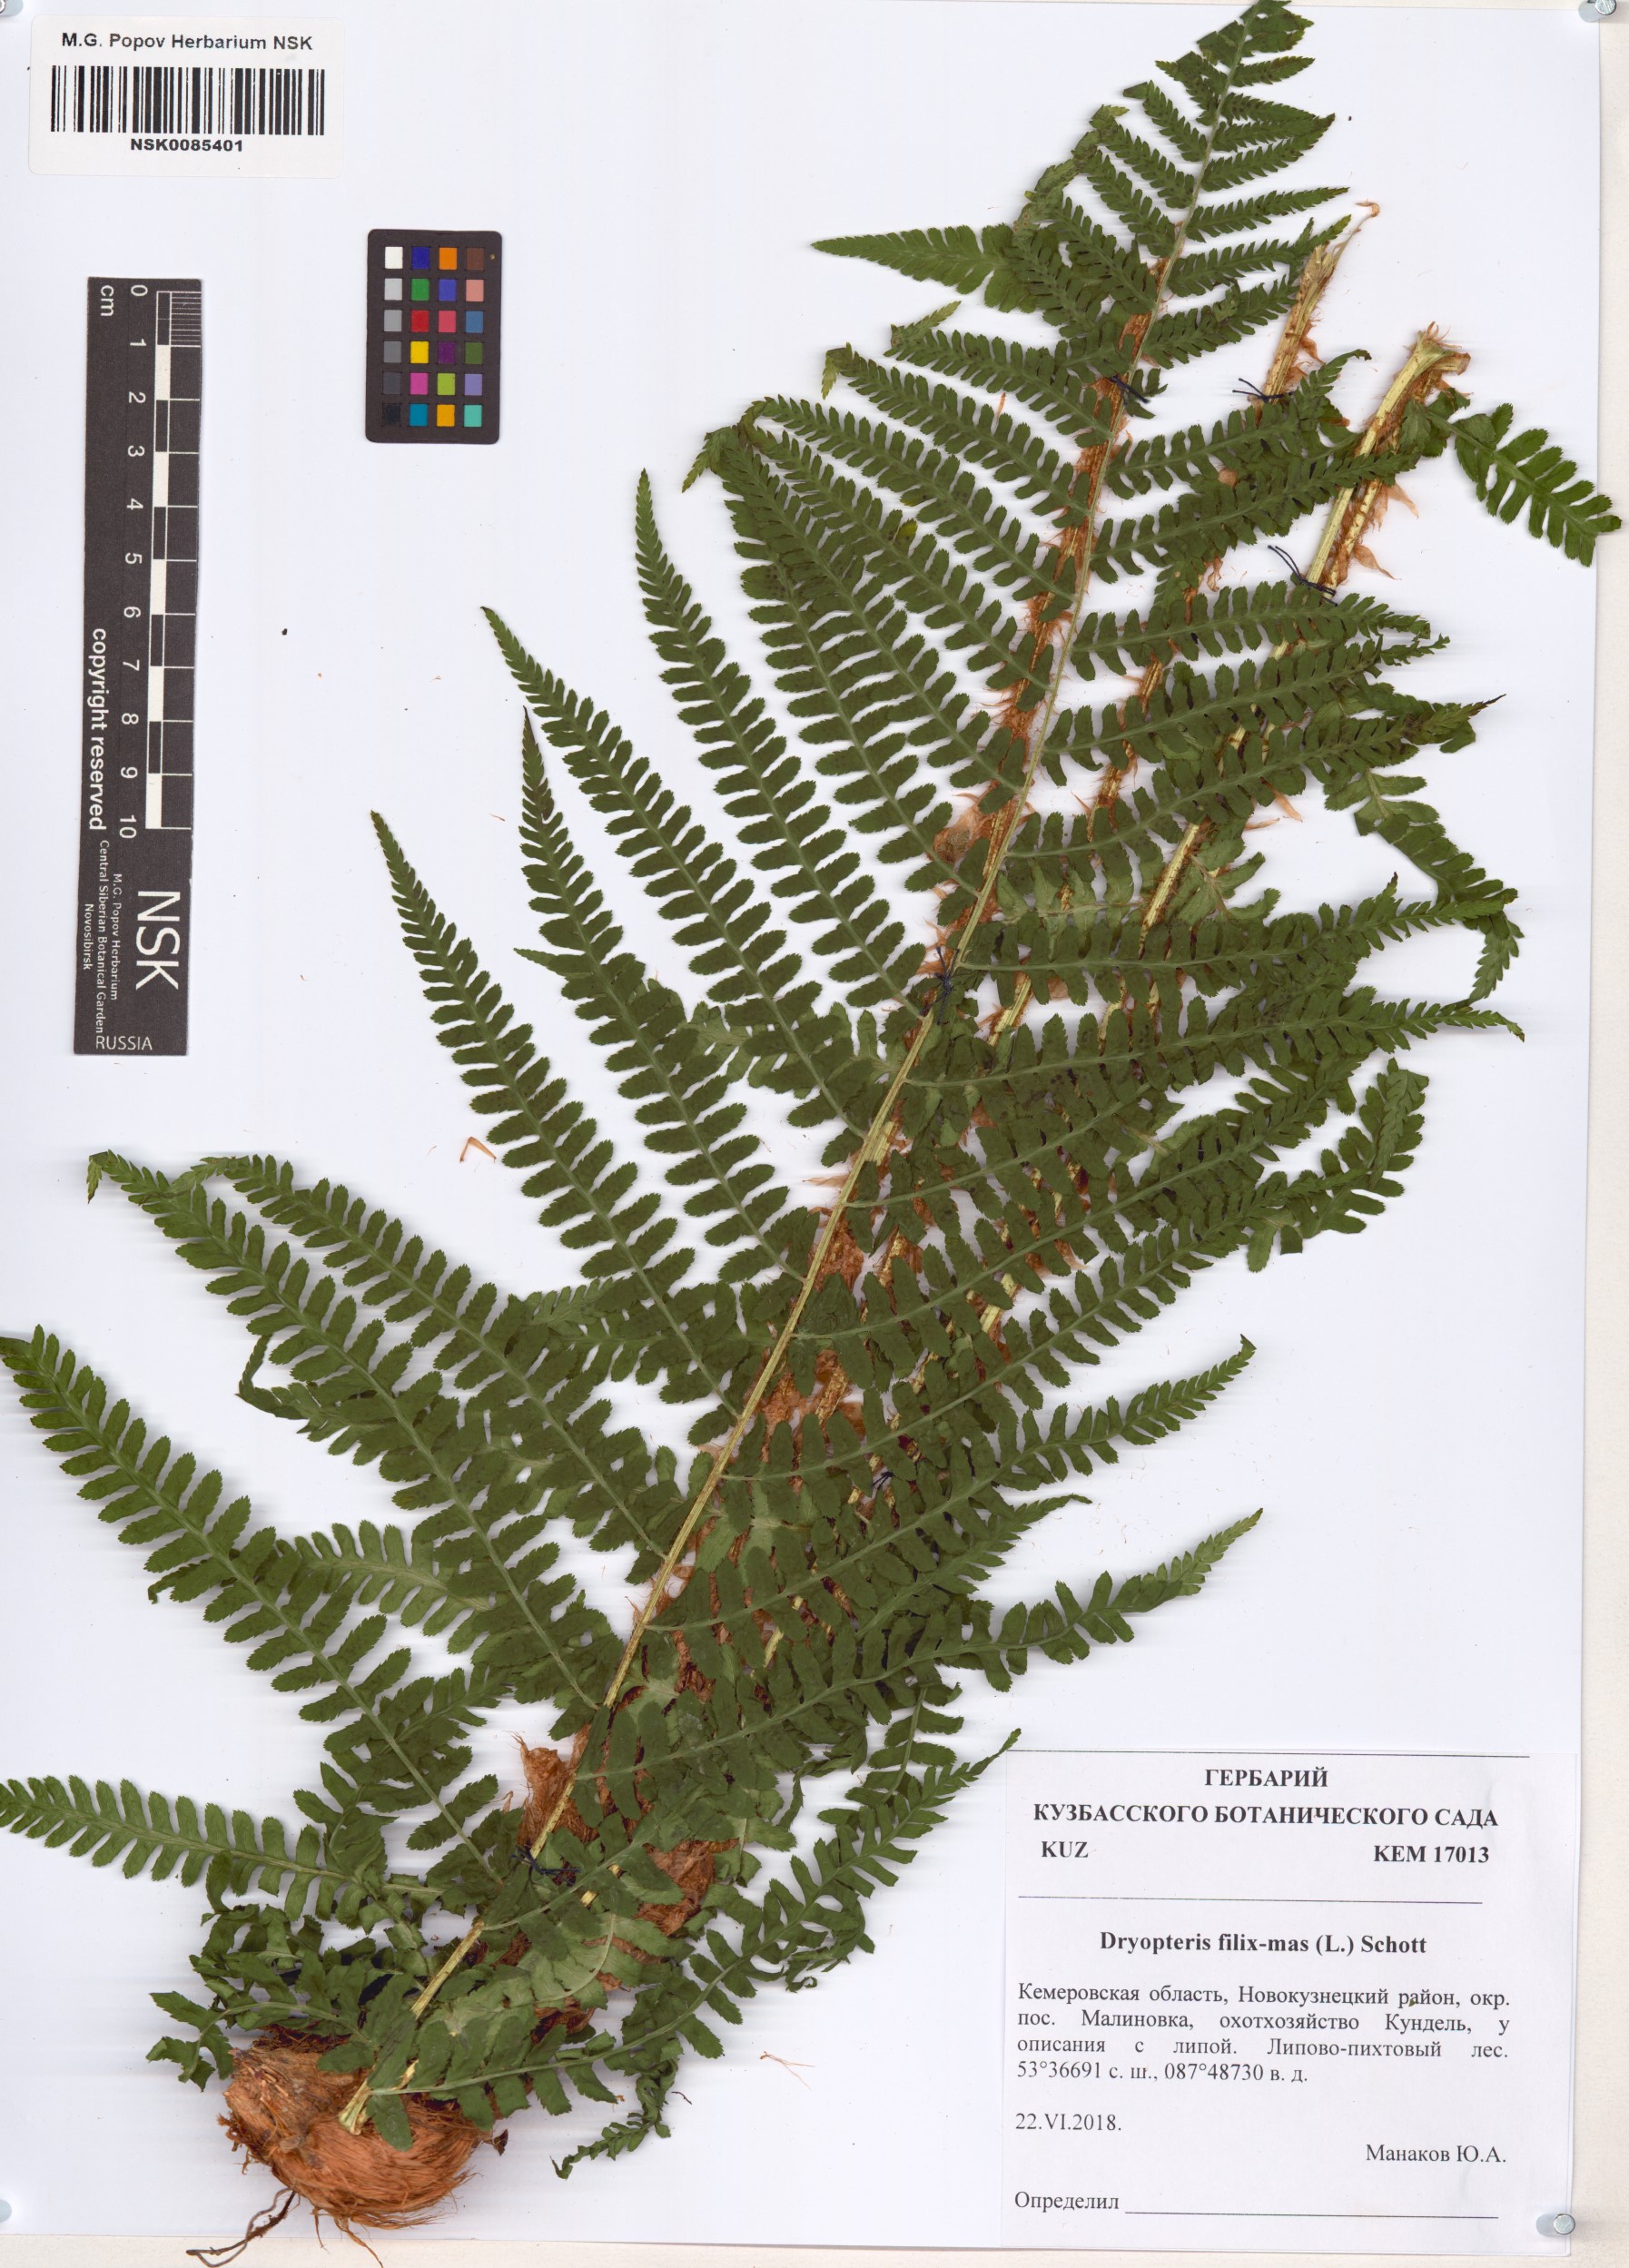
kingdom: Plantae
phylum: Tracheophyta
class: Polypodiopsida
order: Polypodiales
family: Dryopteridaceae
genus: Dryopteris
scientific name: Dryopteris filix-mas
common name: Male fern
